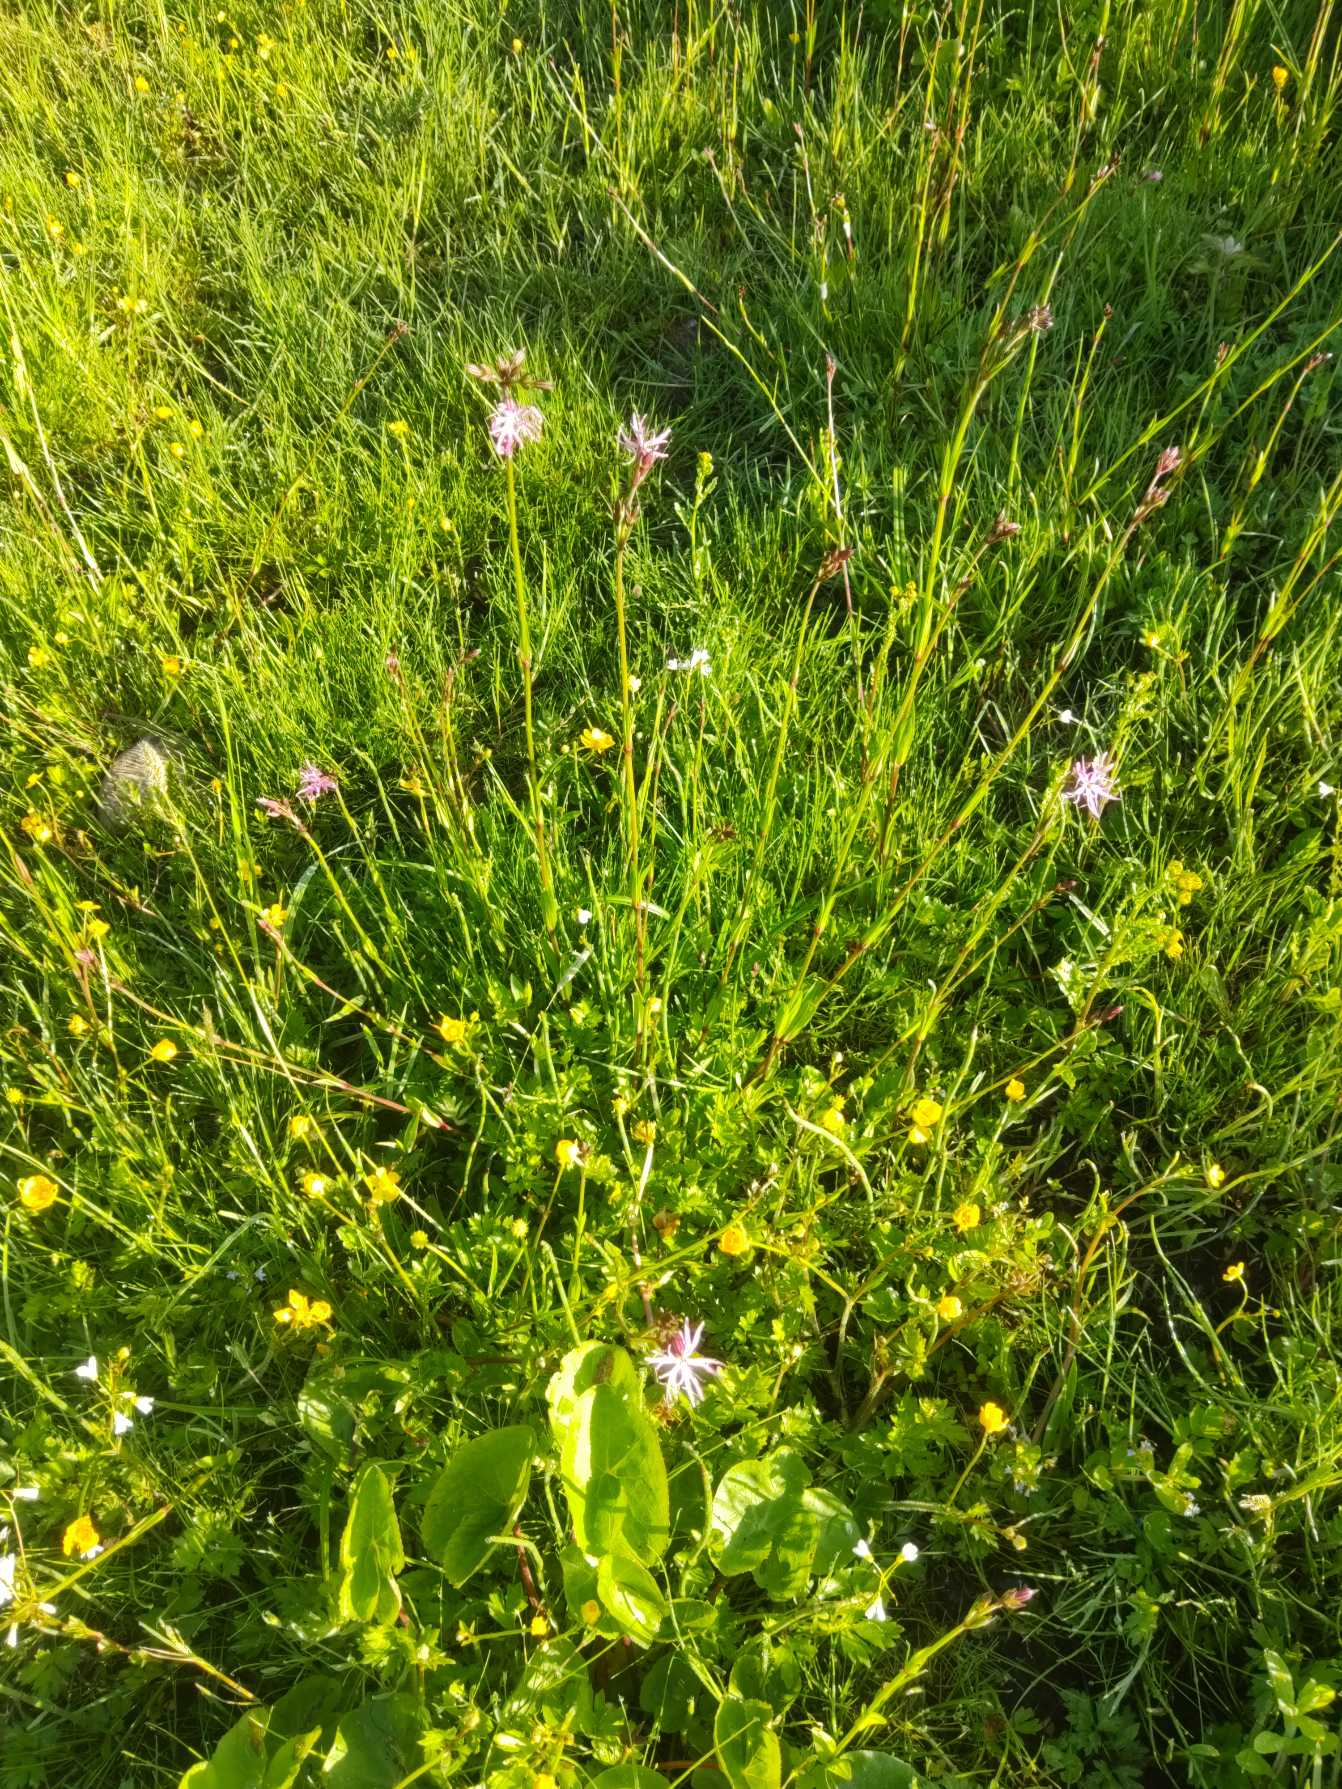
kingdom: Plantae
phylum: Tracheophyta
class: Magnoliopsida
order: Caryophyllales
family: Caryophyllaceae
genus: Silene
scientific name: Silene flos-cuculi
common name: Trævlekrone
